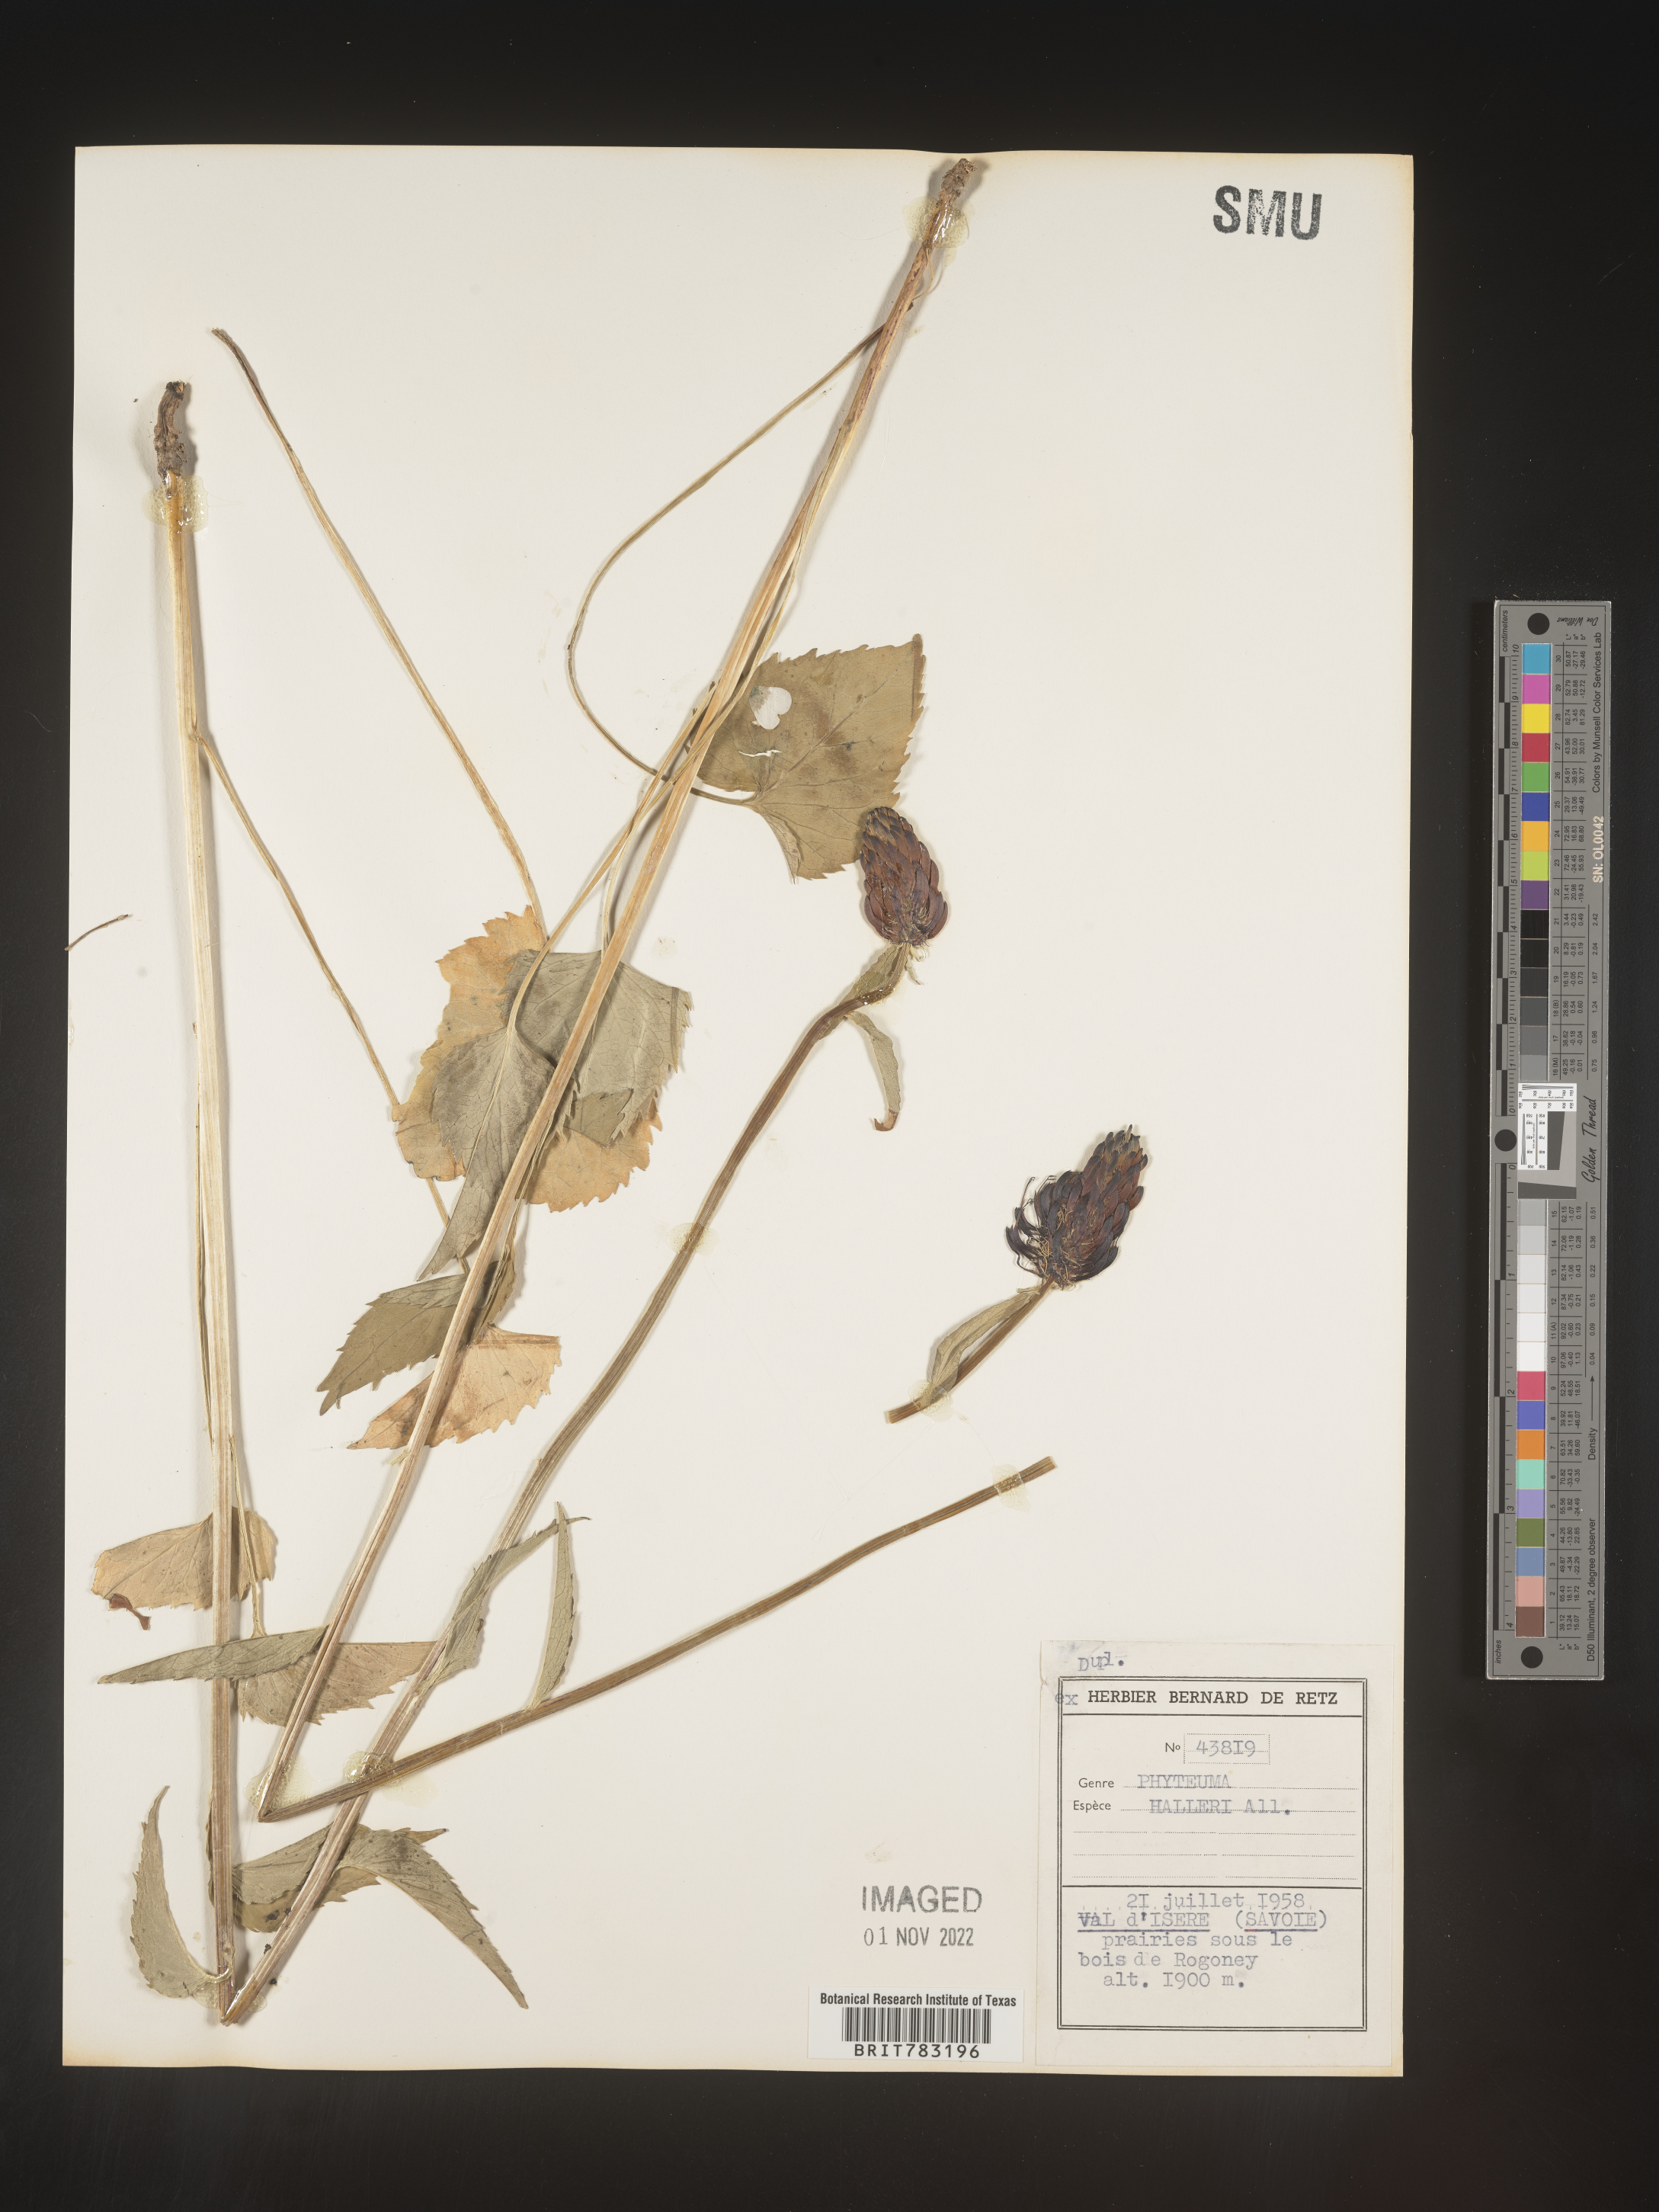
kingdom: Plantae
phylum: Tracheophyta
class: Magnoliopsida
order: Asterales
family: Campanulaceae
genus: Phyteuma
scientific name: Phyteuma
